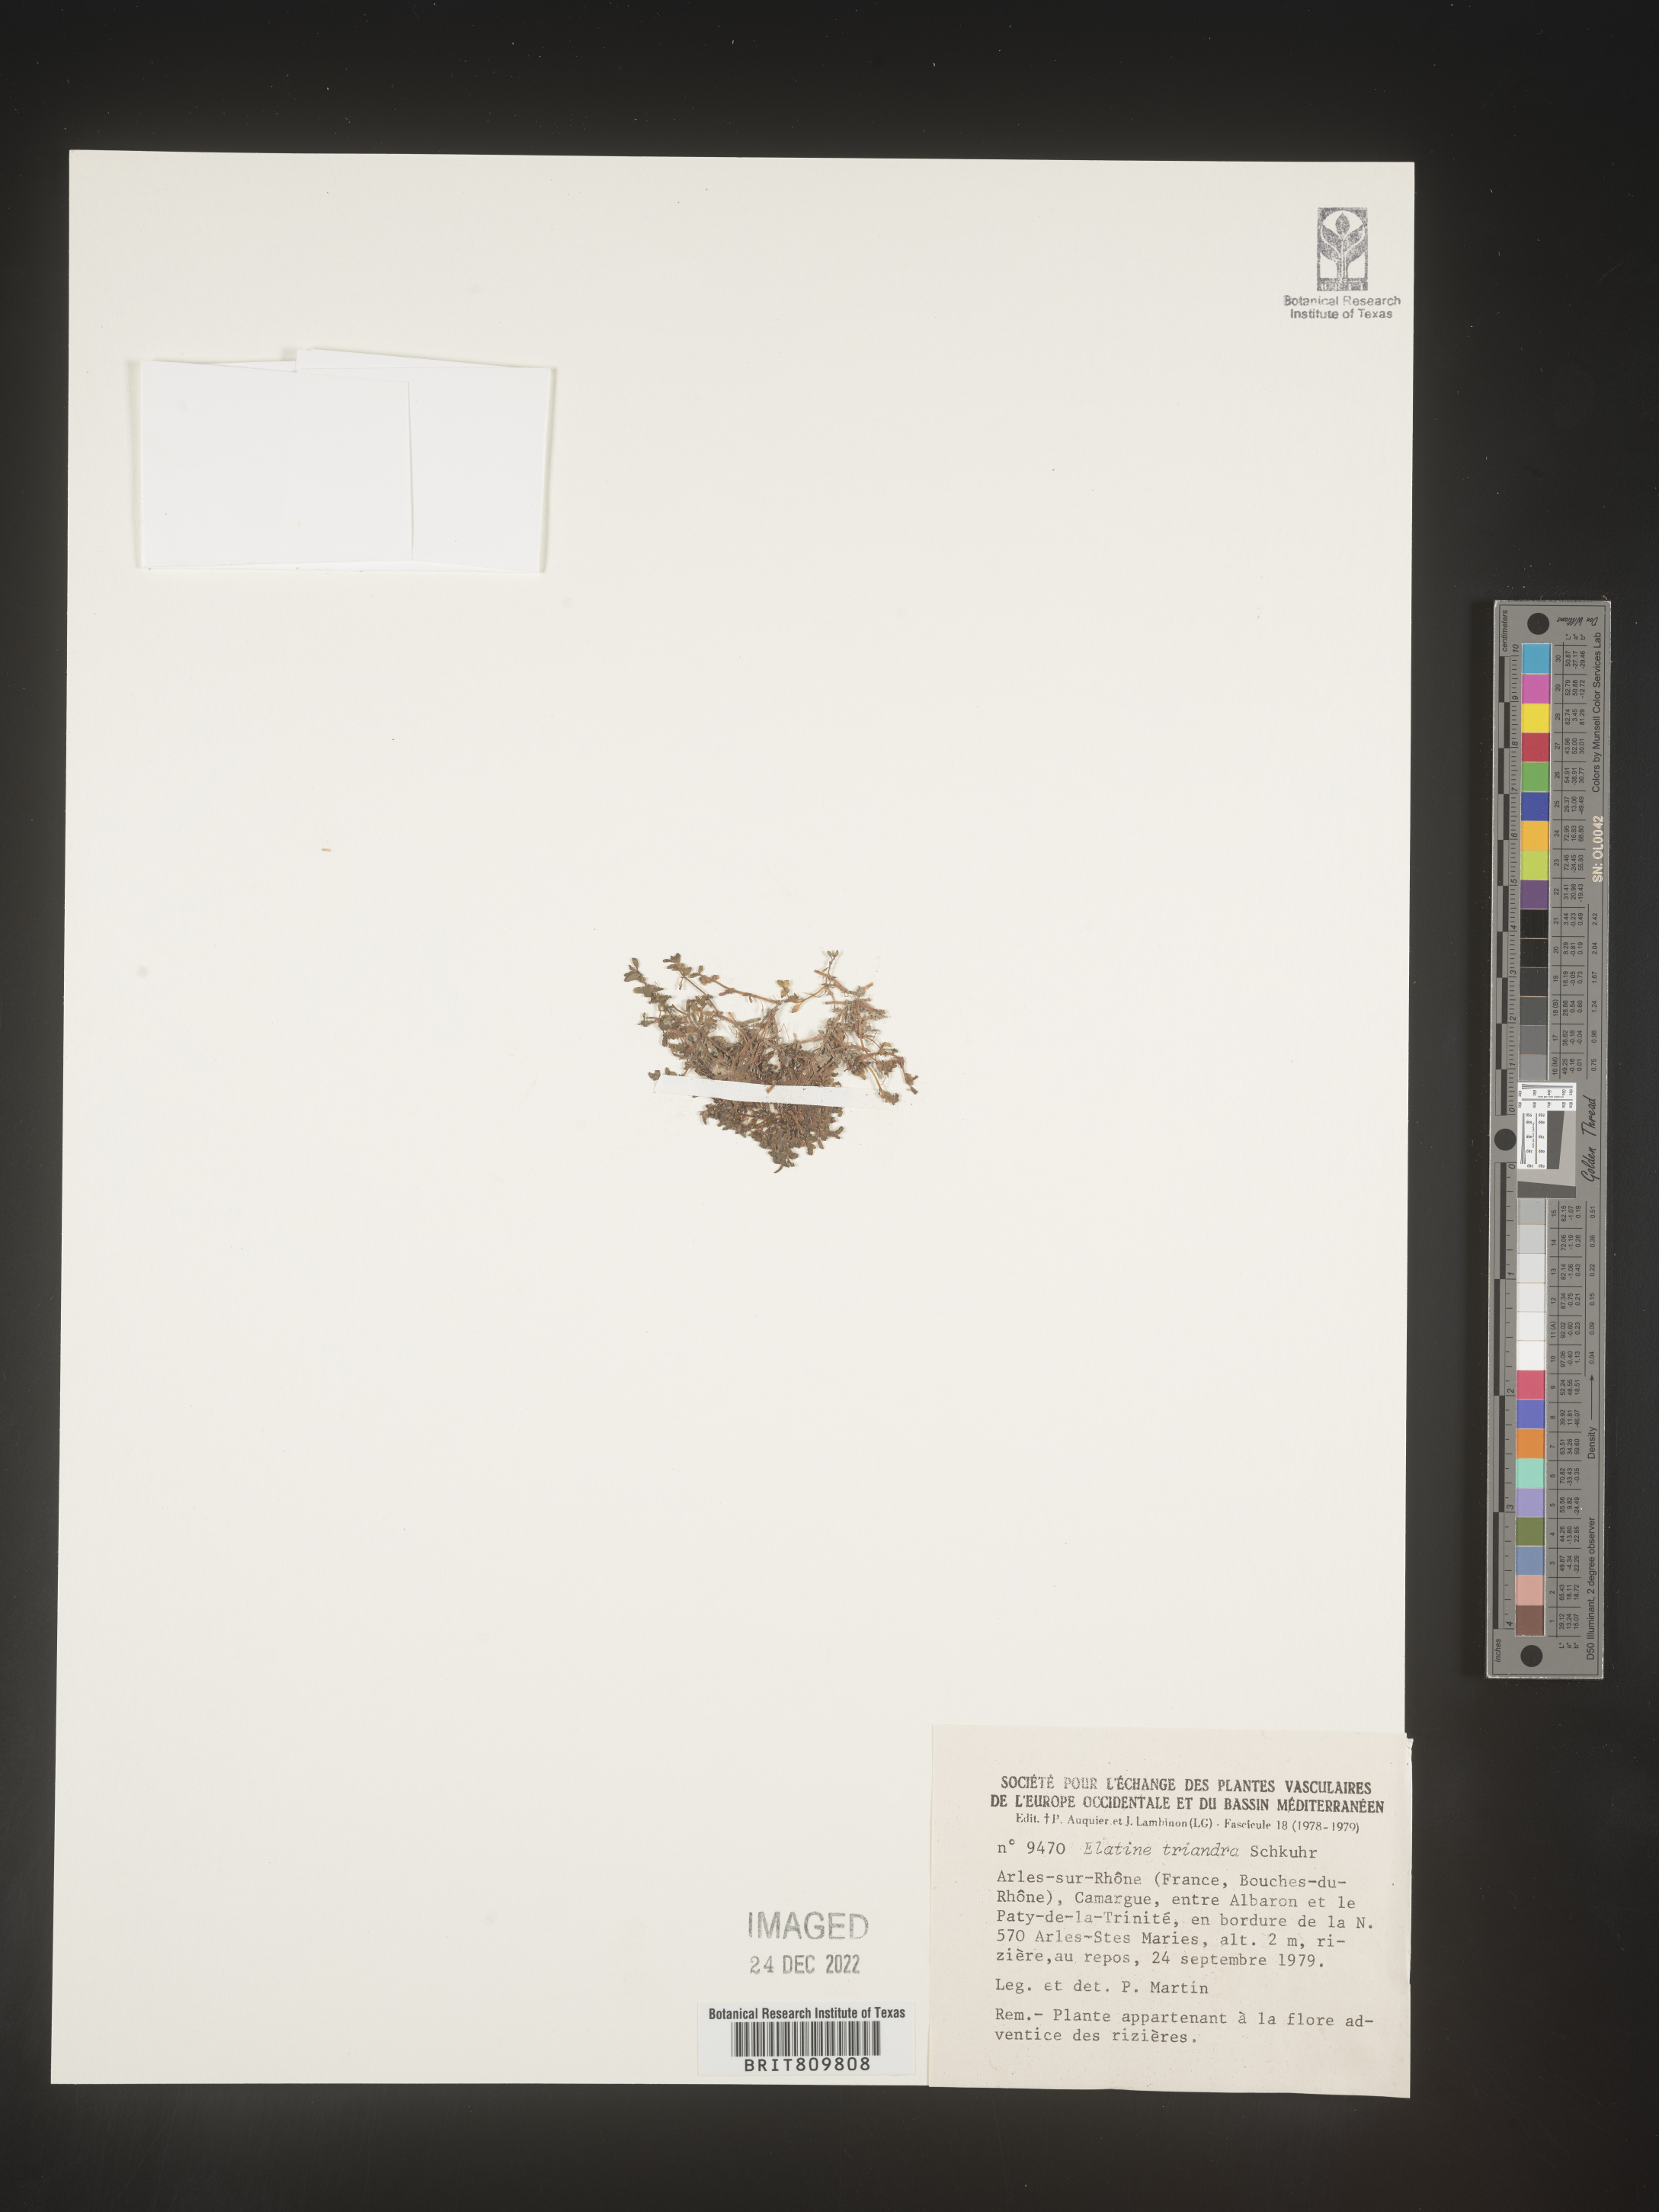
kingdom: Plantae
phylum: Tracheophyta
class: Magnoliopsida
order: Malpighiales
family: Elatinaceae
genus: Elatine
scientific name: Elatine
